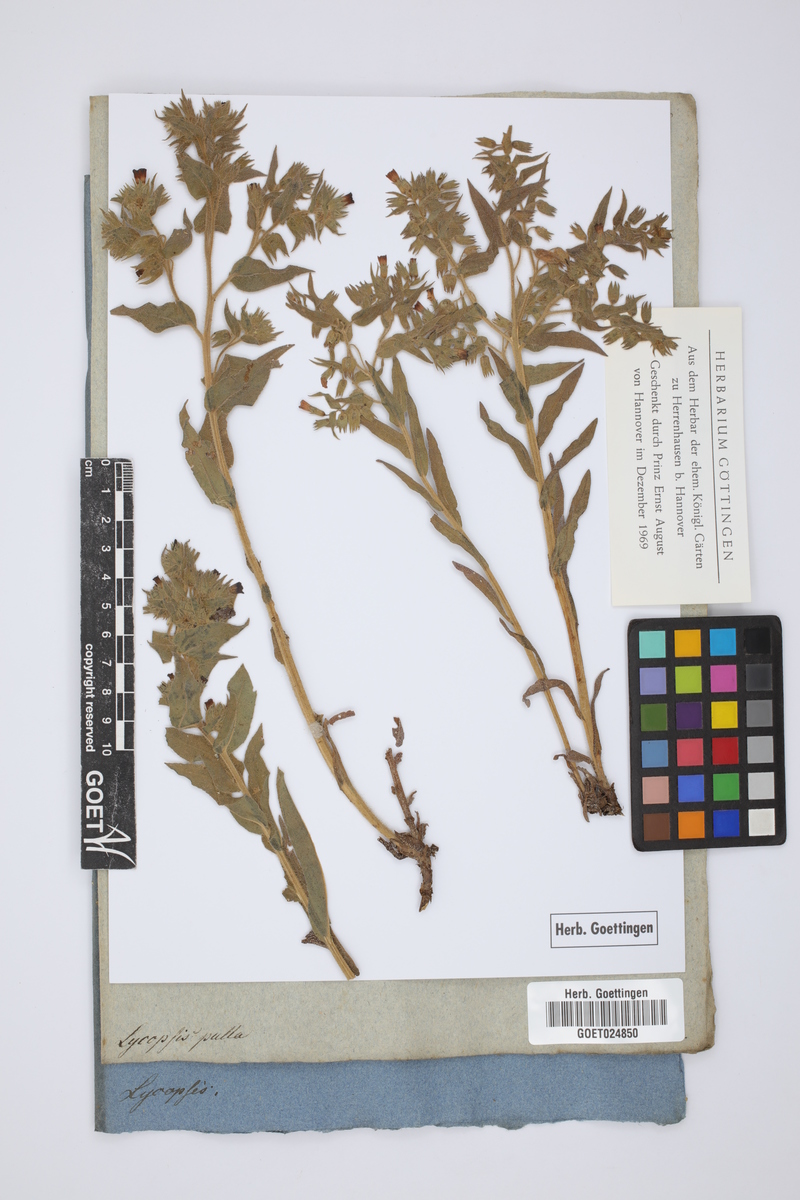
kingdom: Plantae
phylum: Tracheophyta
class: Magnoliopsida
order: Boraginales
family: Boraginaceae
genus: Nonea
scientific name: Nonea pulla
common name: Brown nonea
